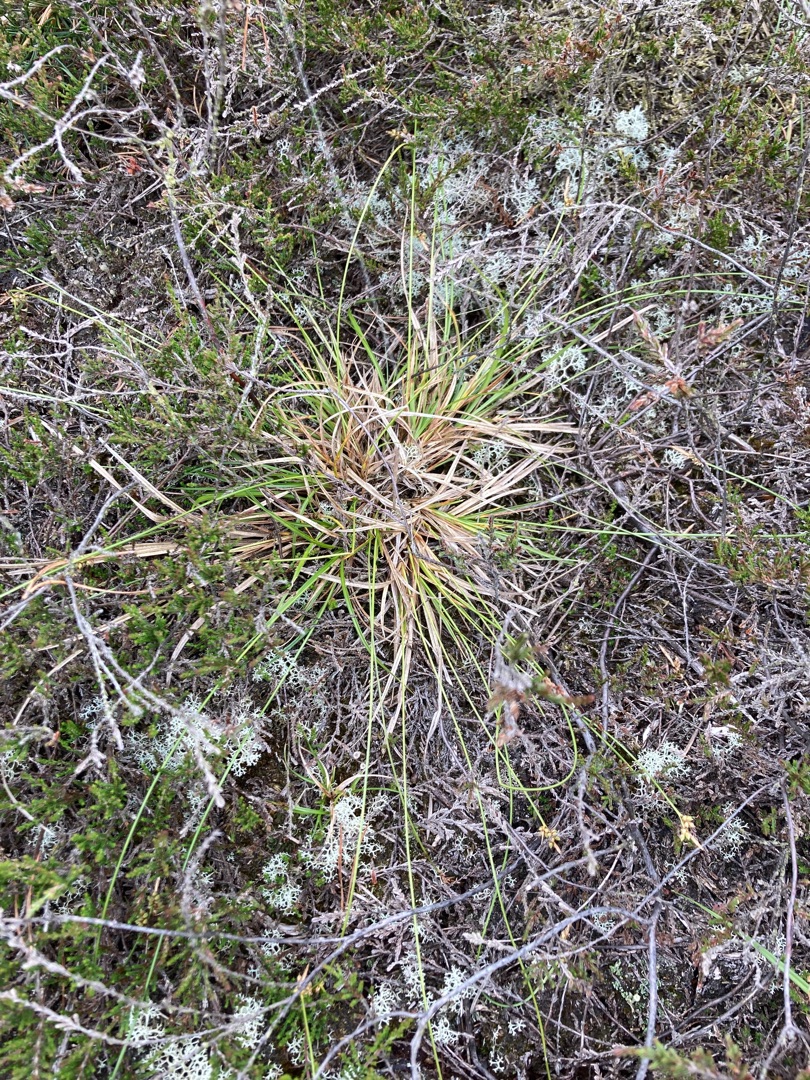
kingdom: Plantae
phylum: Tracheophyta
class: Liliopsida
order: Poales
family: Cyperaceae
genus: Carex
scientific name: Carex pilulifera
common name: Pille-star
